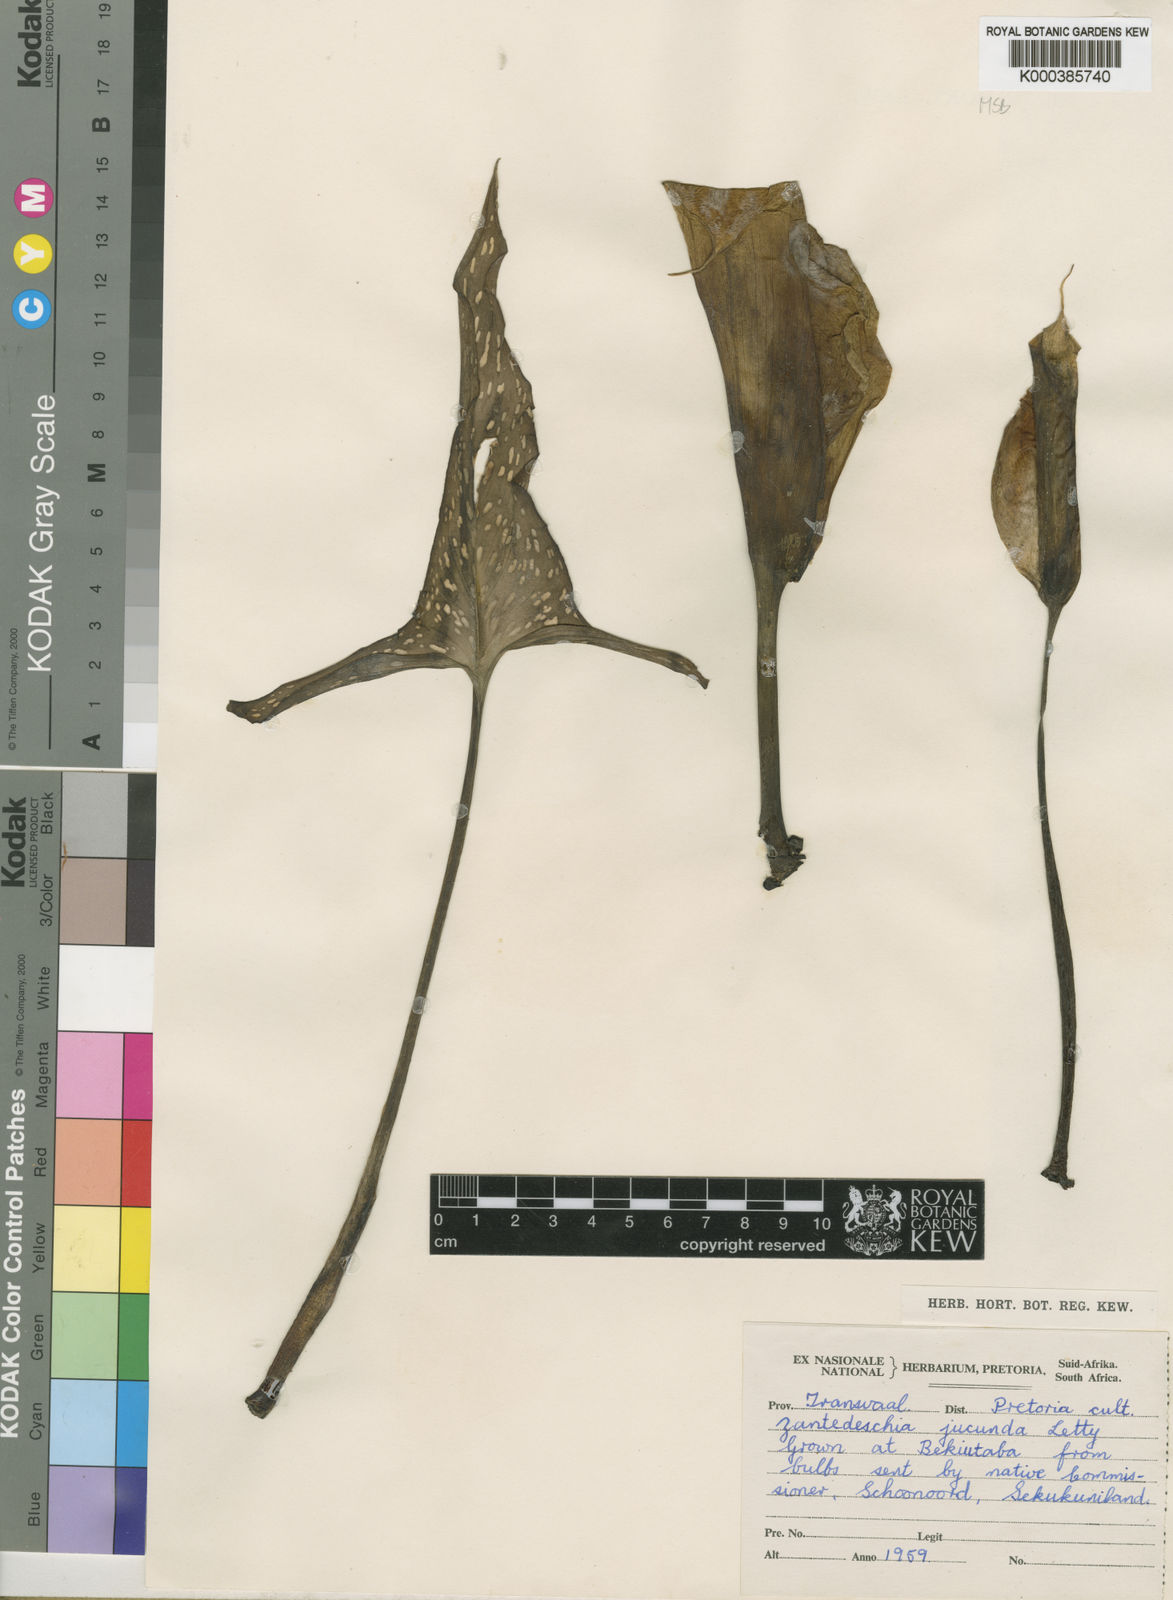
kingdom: Plantae
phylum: Tracheophyta
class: Liliopsida
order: Alismatales
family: Araceae
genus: Zantedeschia
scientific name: Zantedeschia jucunda
